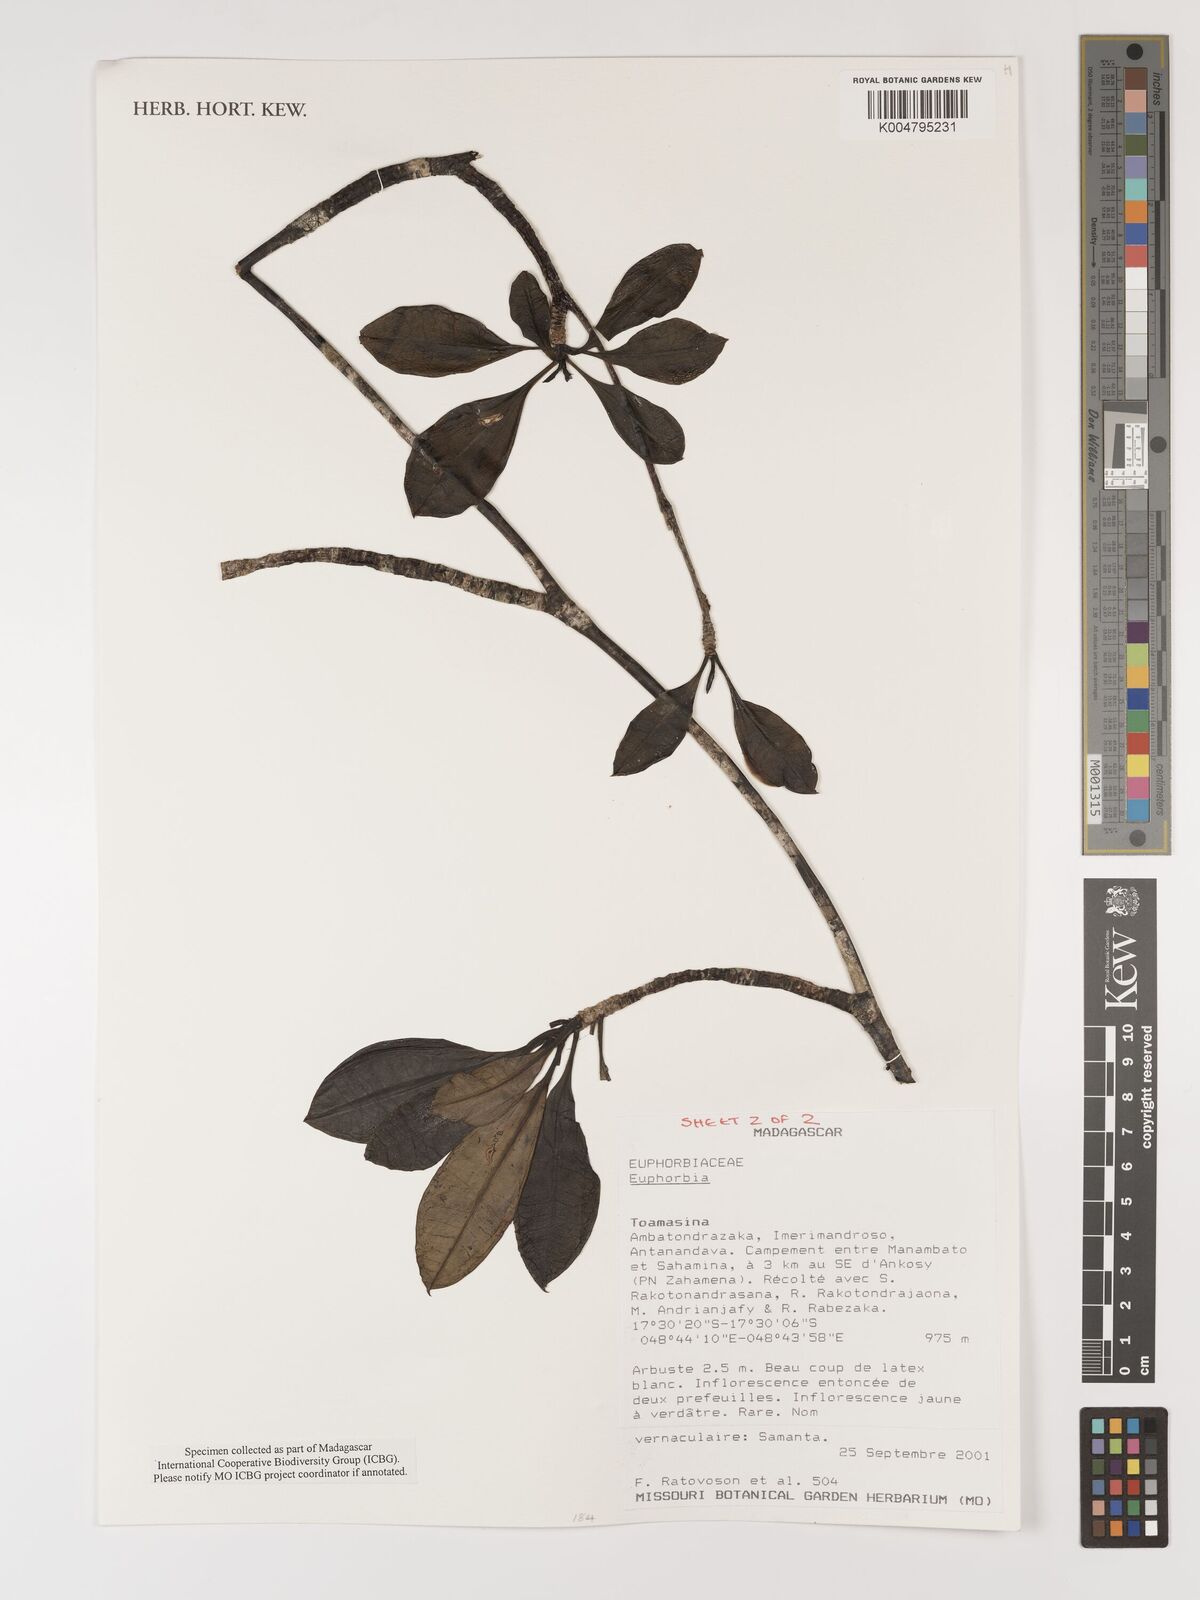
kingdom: Plantae
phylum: Tracheophyta
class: Magnoliopsida
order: Malpighiales
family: Euphorbiaceae
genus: Euphorbia
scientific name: Euphorbia
